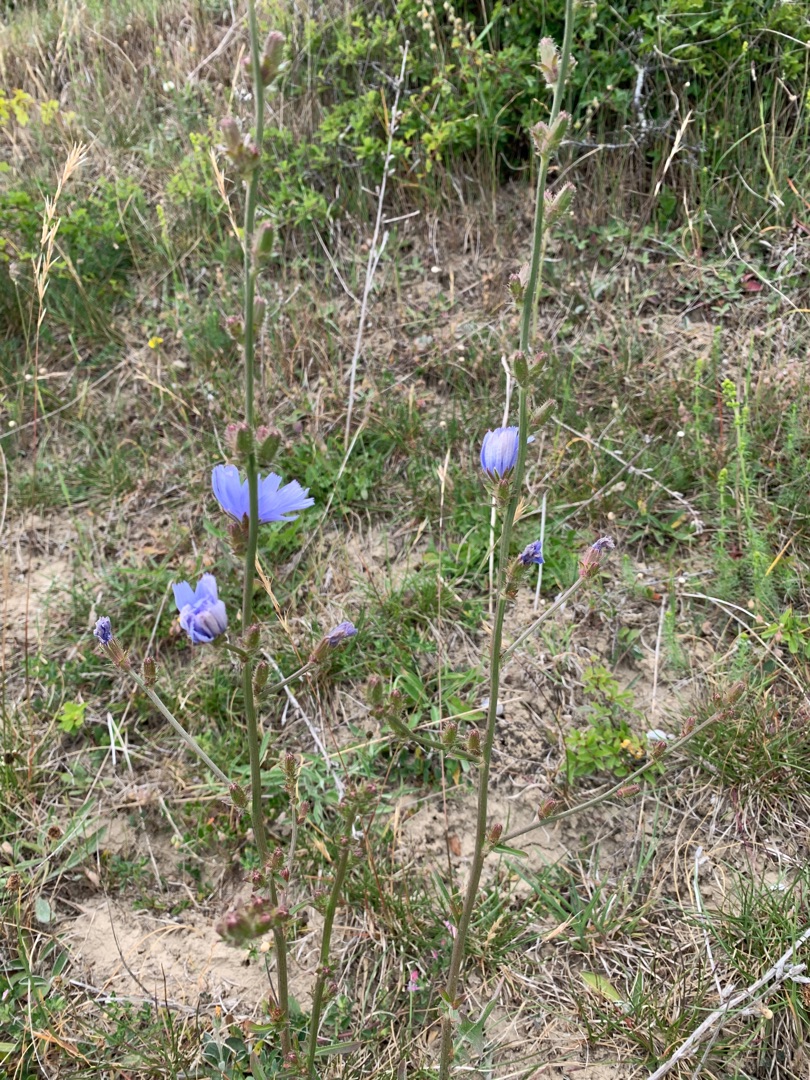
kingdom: Plantae
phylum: Tracheophyta
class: Magnoliopsida
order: Asterales
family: Asteraceae
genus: Cichorium
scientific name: Cichorium intybus
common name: Cikorie
